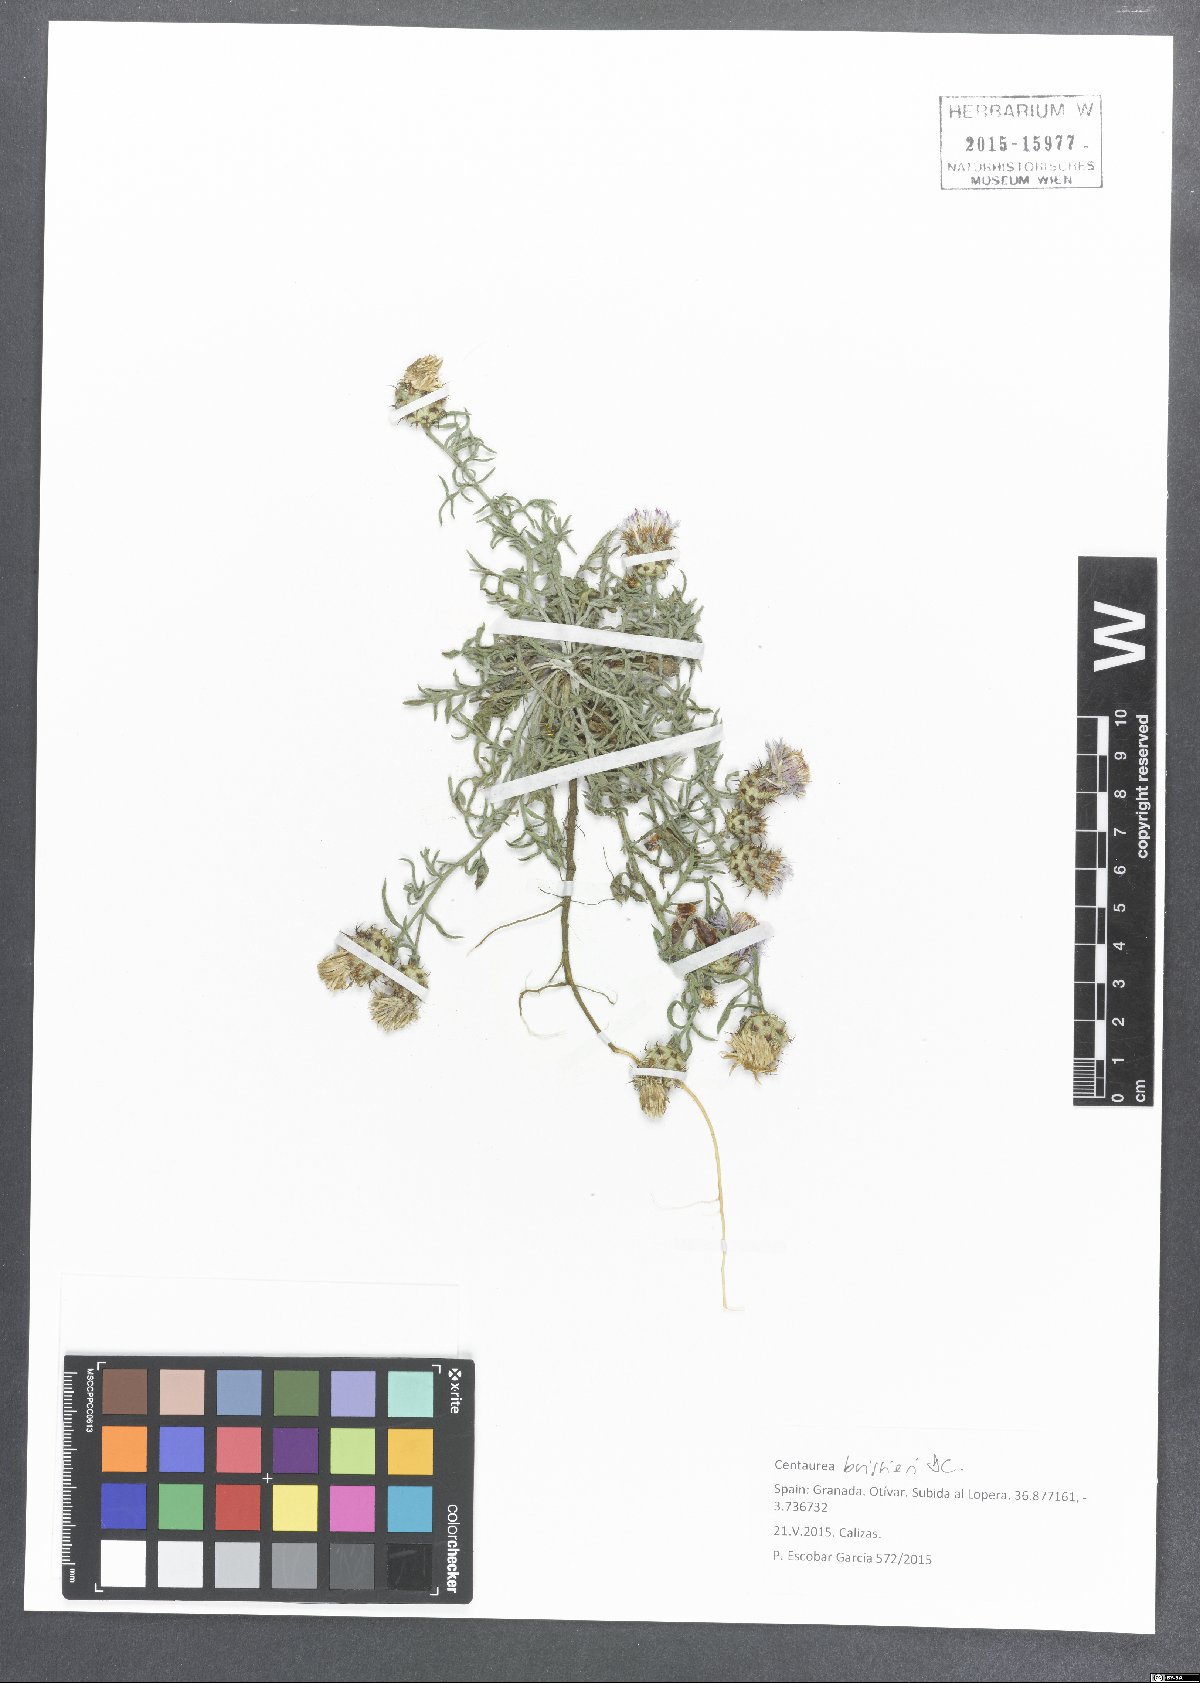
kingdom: Plantae
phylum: Tracheophyta
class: Magnoliopsida
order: Asterales
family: Asteraceae
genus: Centaurea
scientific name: Centaurea boissieri
